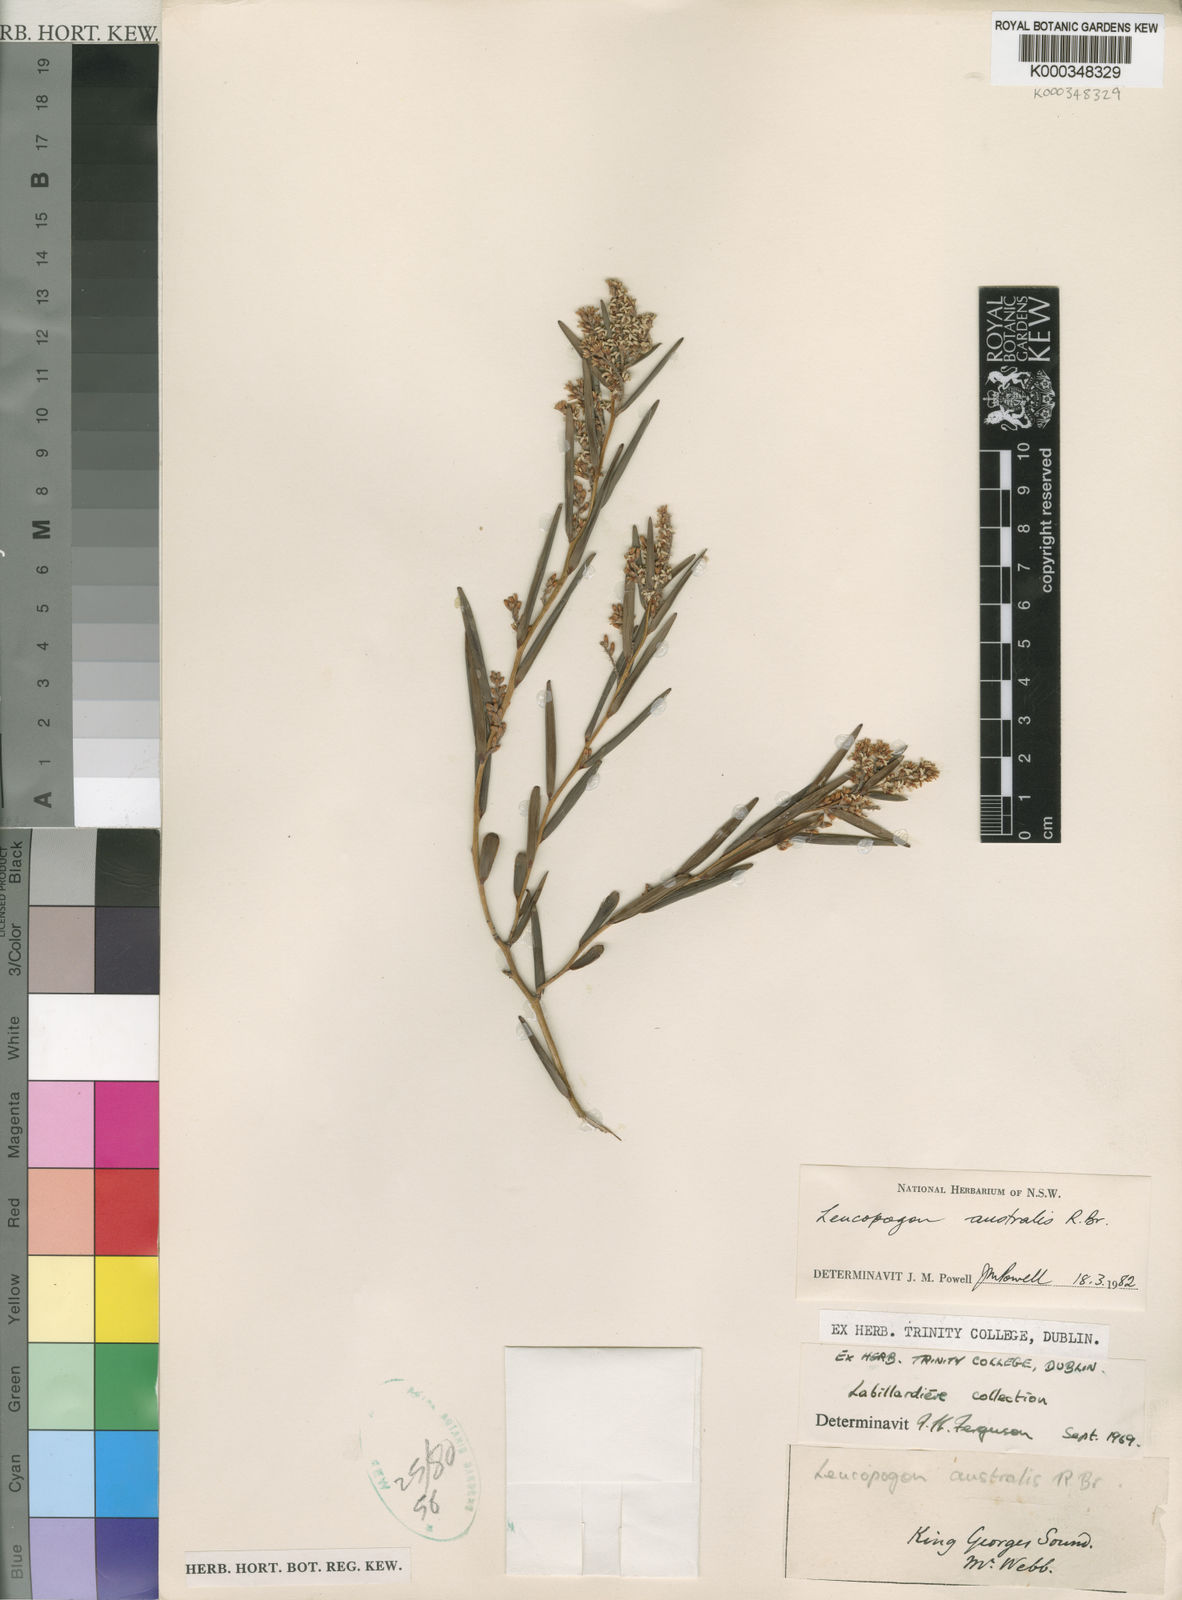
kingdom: Plantae
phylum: Tracheophyta
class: Magnoliopsida
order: Ericales
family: Ericaceae
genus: Leucopogon
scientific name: Leucopogon australis
